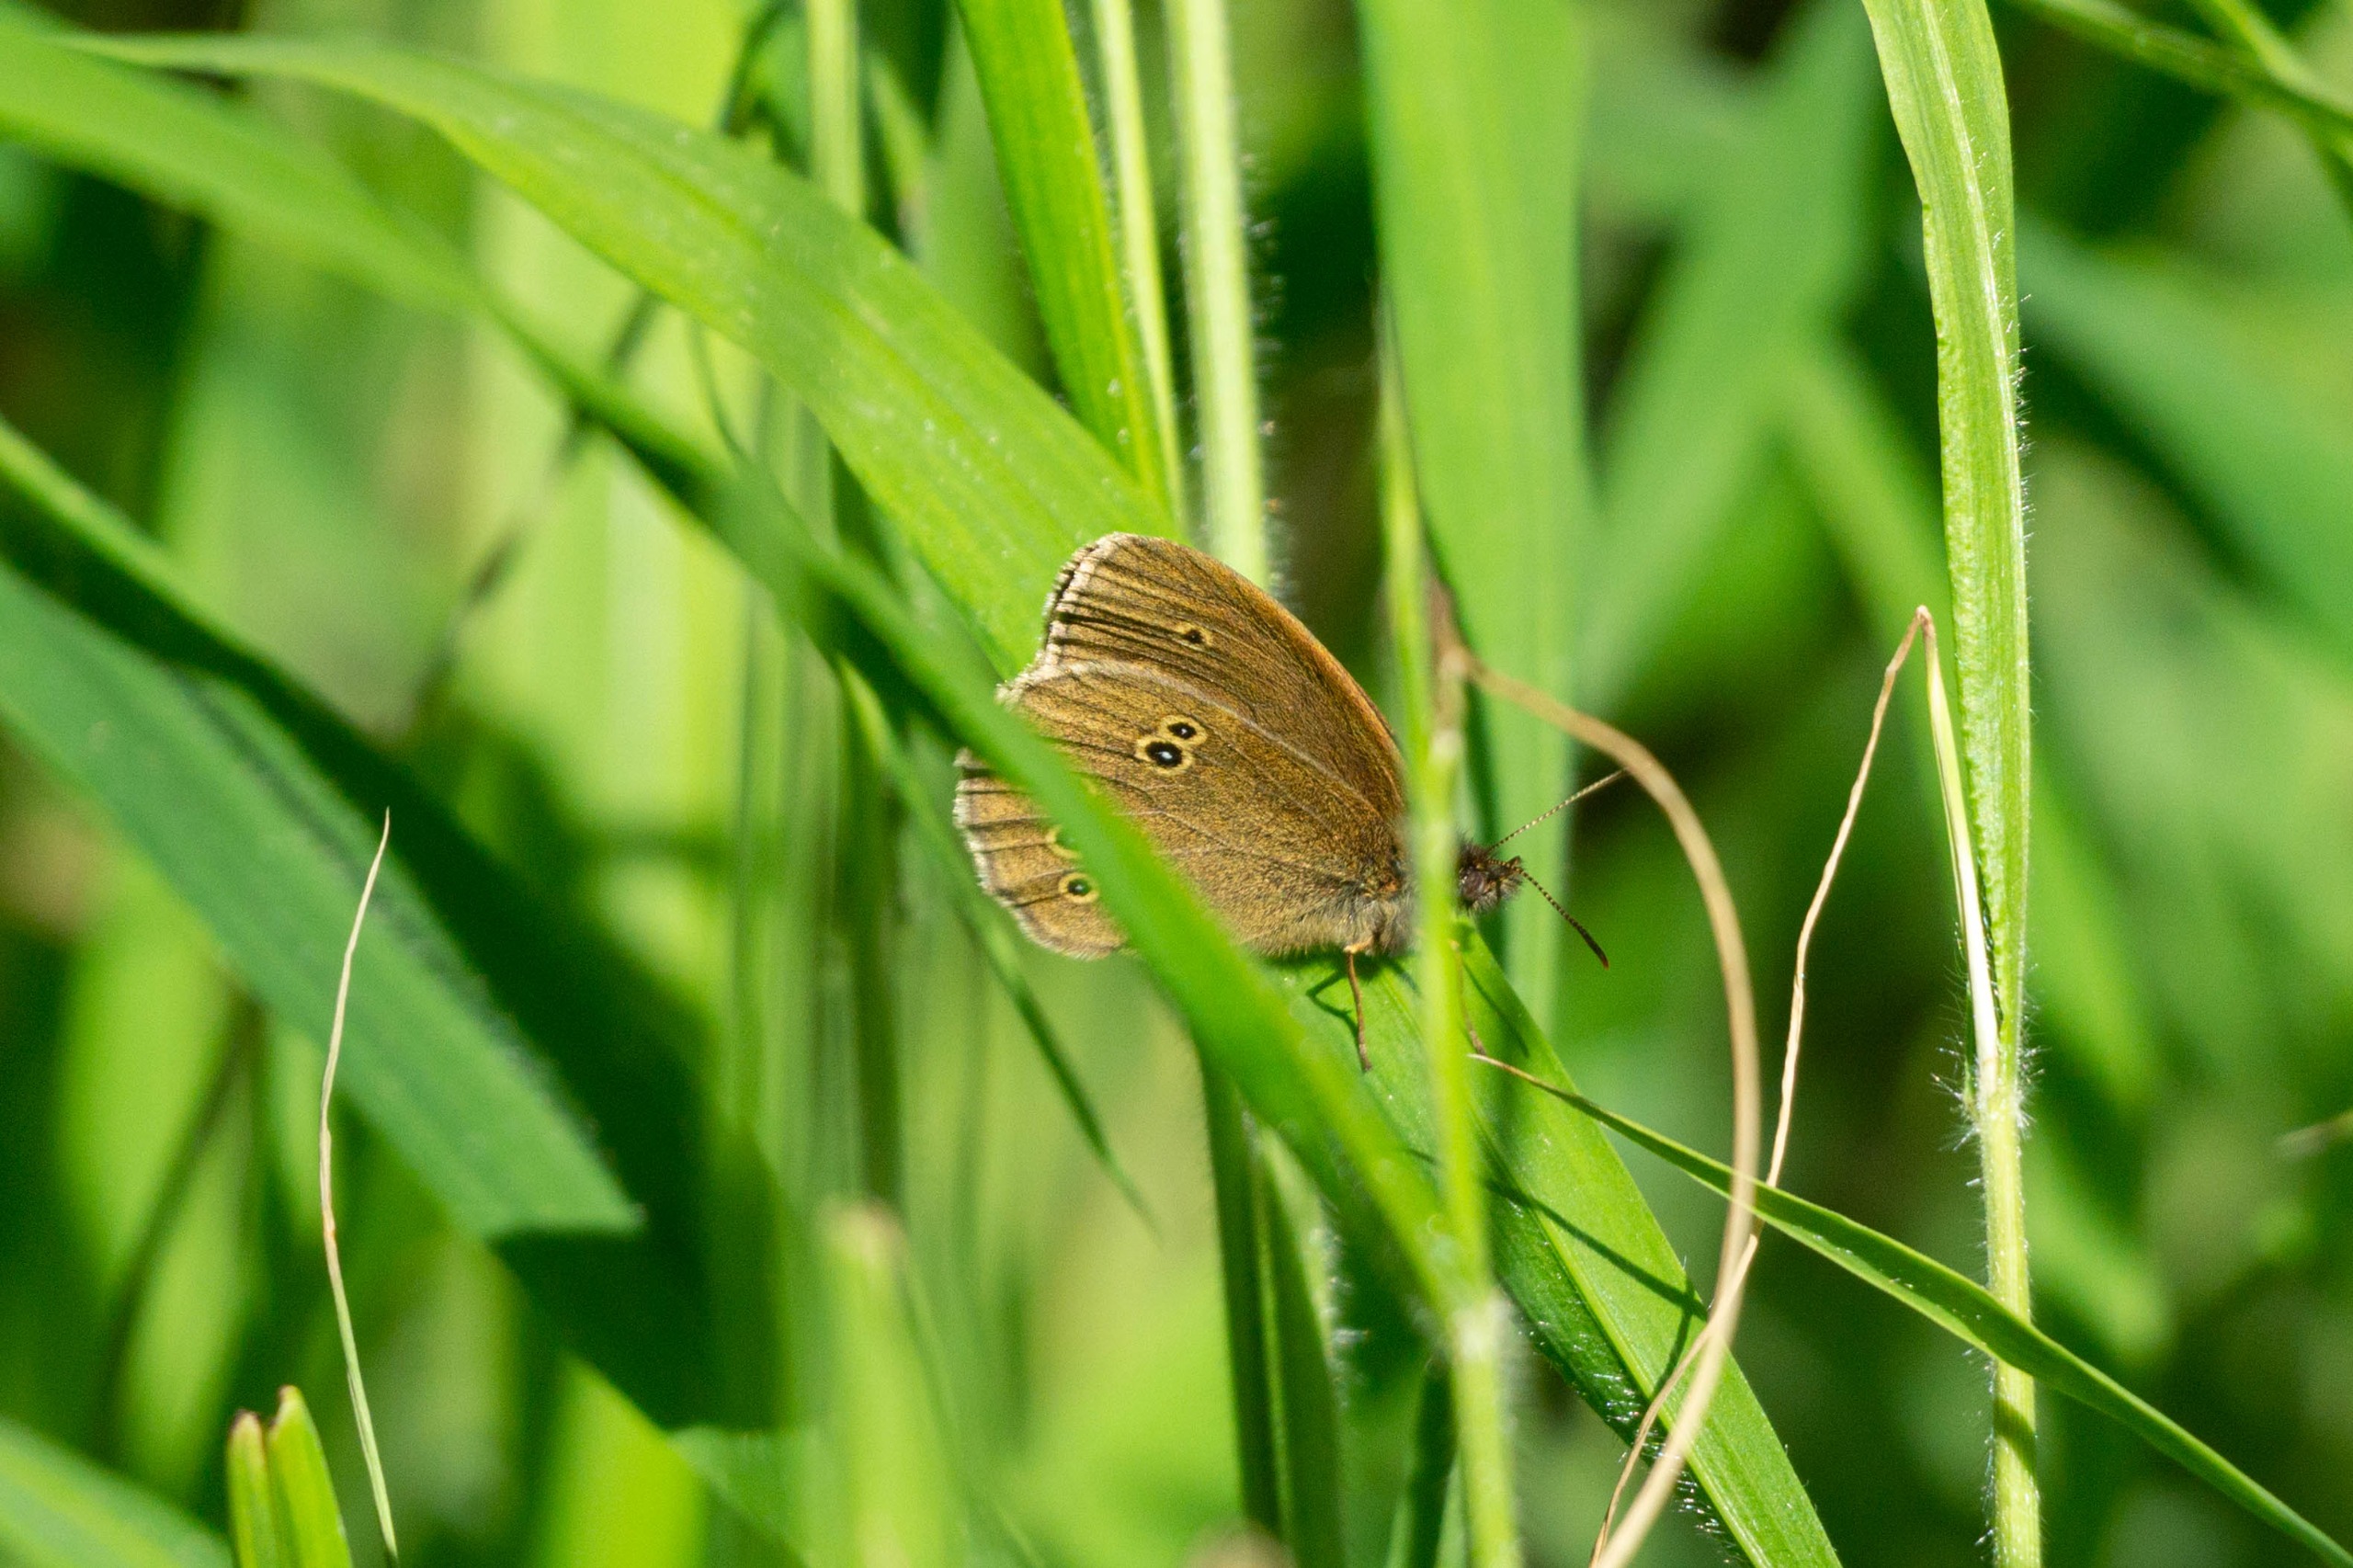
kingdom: Animalia
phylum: Arthropoda
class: Insecta
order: Lepidoptera
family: Nymphalidae
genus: Aphantopus
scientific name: Aphantopus hyperantus
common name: Engrandøje
